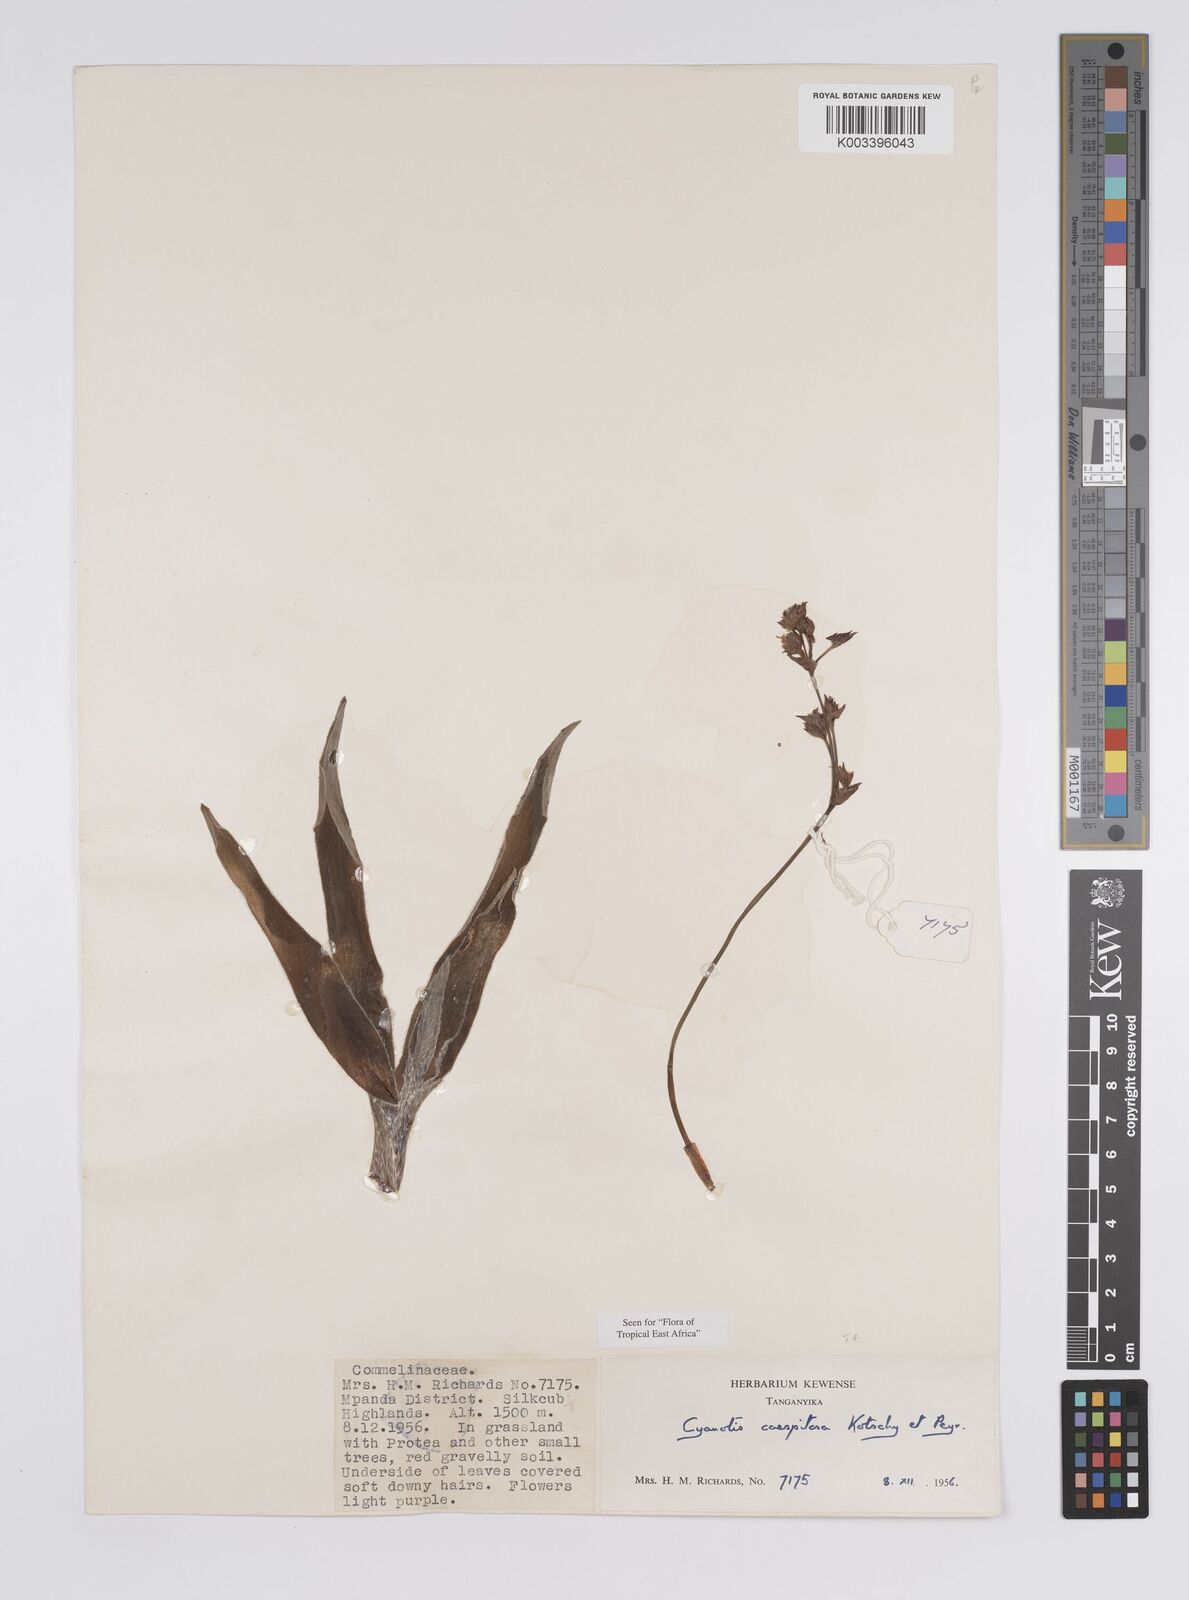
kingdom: Plantae
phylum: Tracheophyta
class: Liliopsida
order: Commelinales
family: Commelinaceae
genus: Cyanotis
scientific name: Cyanotis caespitosa
